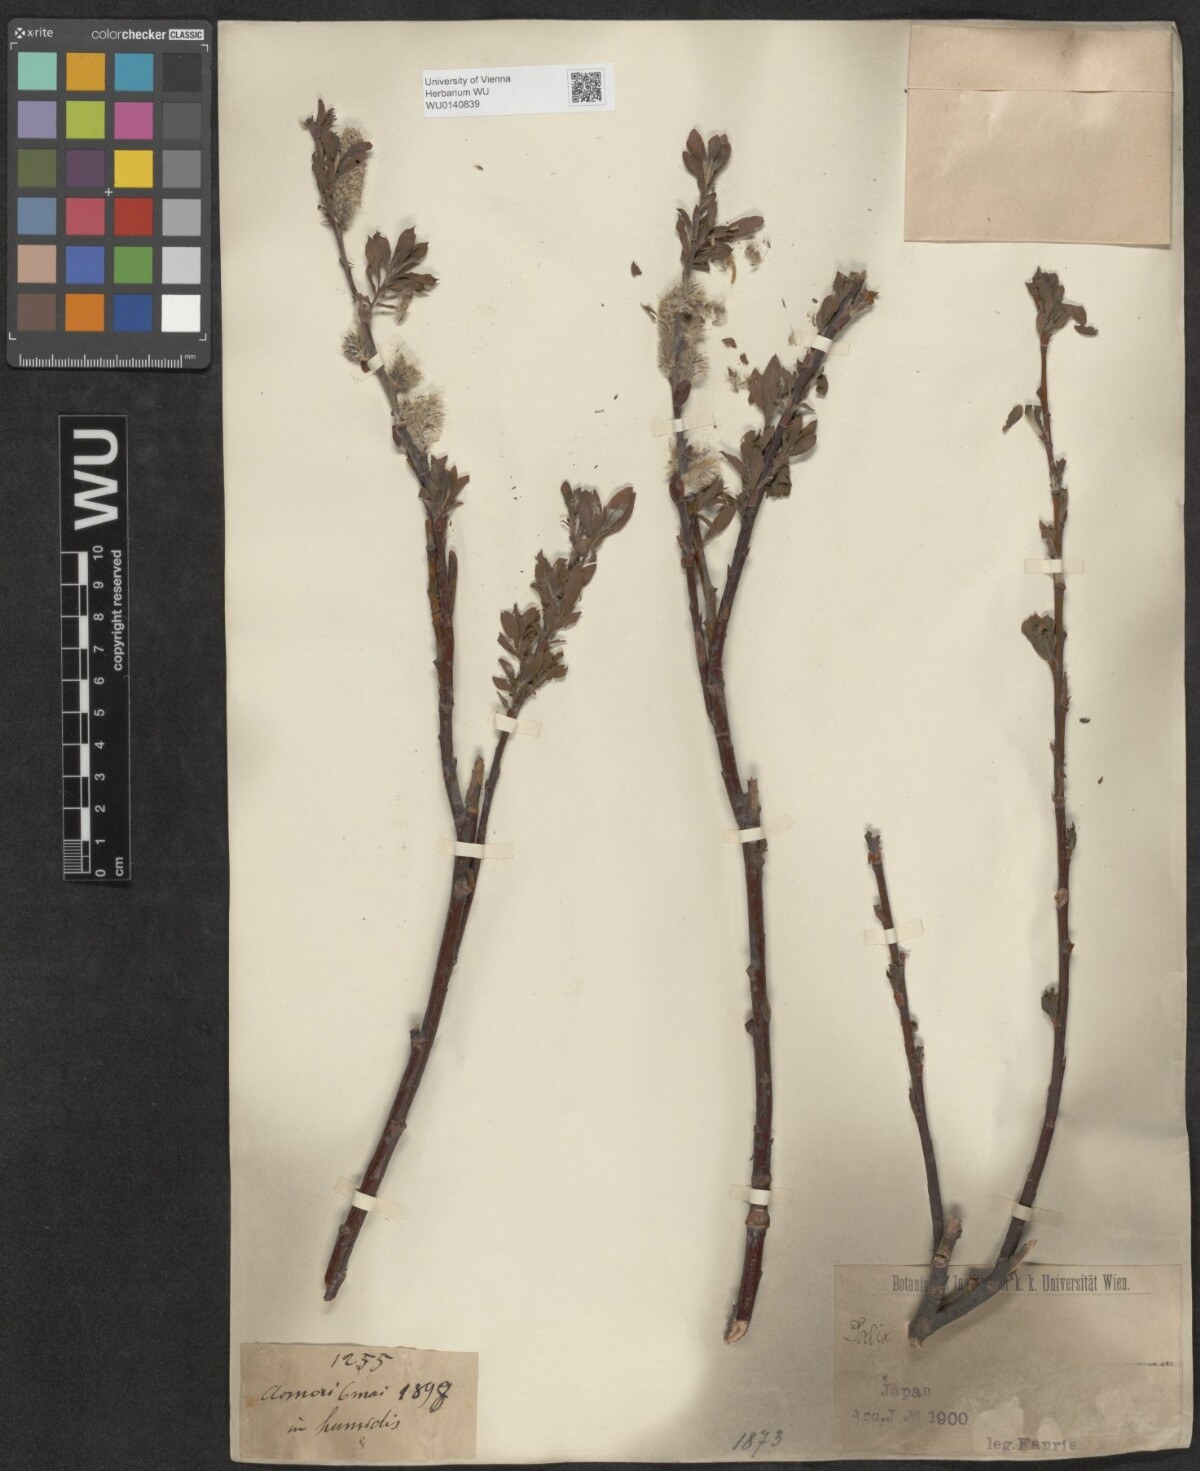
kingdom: Plantae
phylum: Tracheophyta
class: Magnoliopsida
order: Malpighiales
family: Salicaceae
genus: Salix
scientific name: Salix
